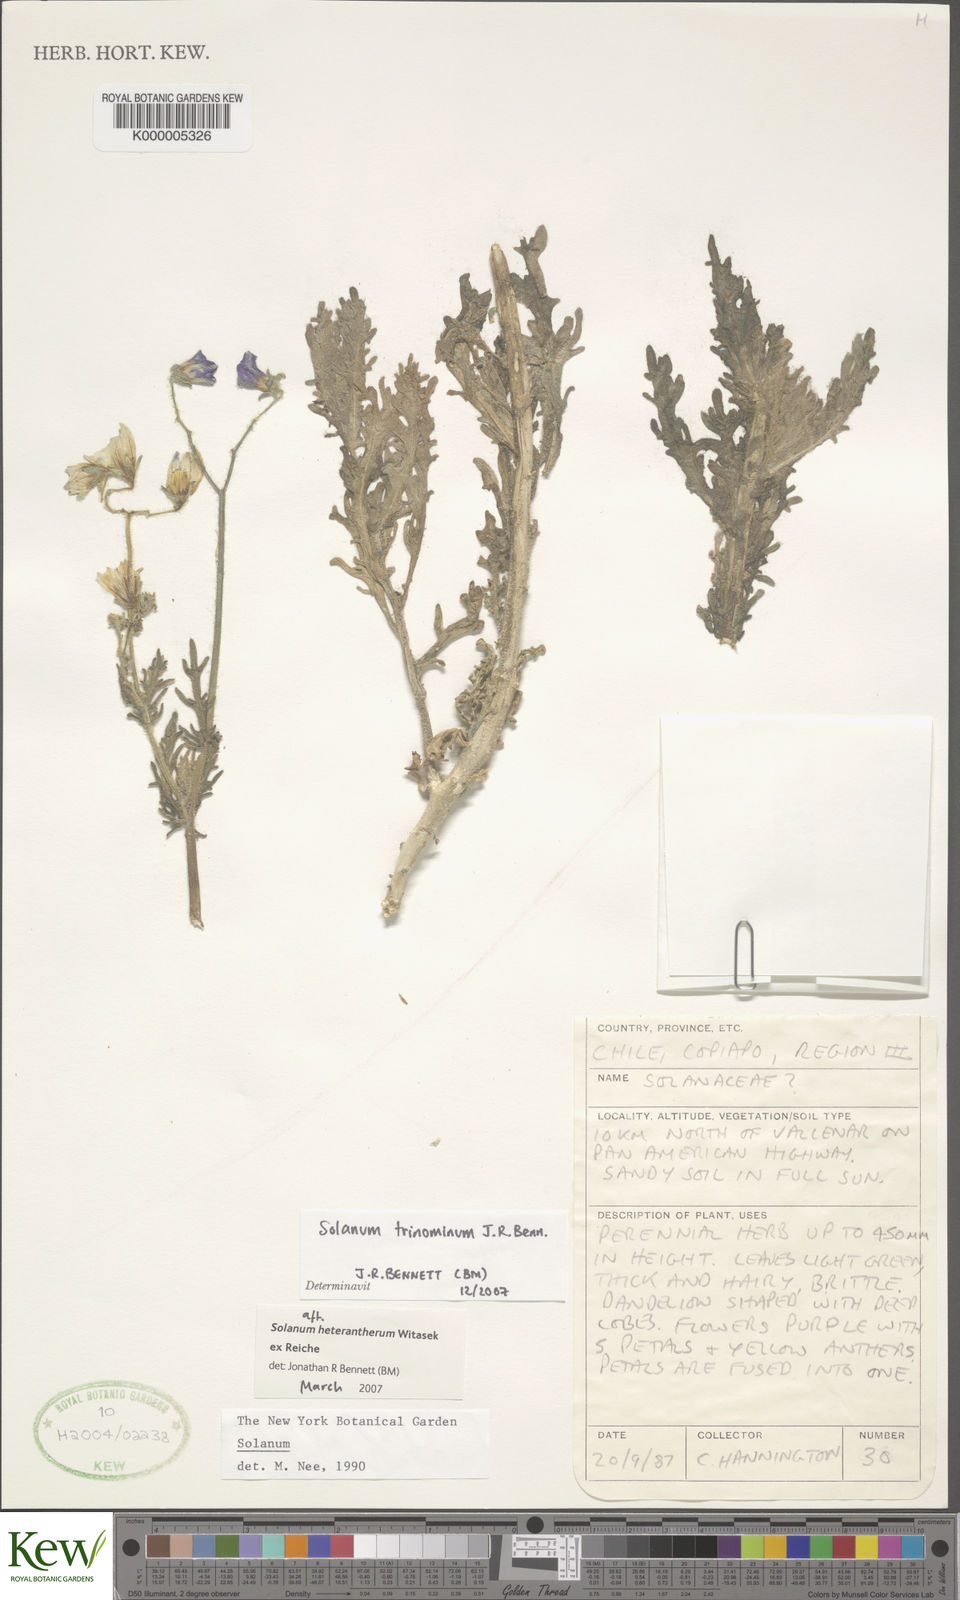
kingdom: Plantae
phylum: Tracheophyta
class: Magnoliopsida
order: Solanales
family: Solanaceae
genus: Solanum
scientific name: Solanum trinominum
